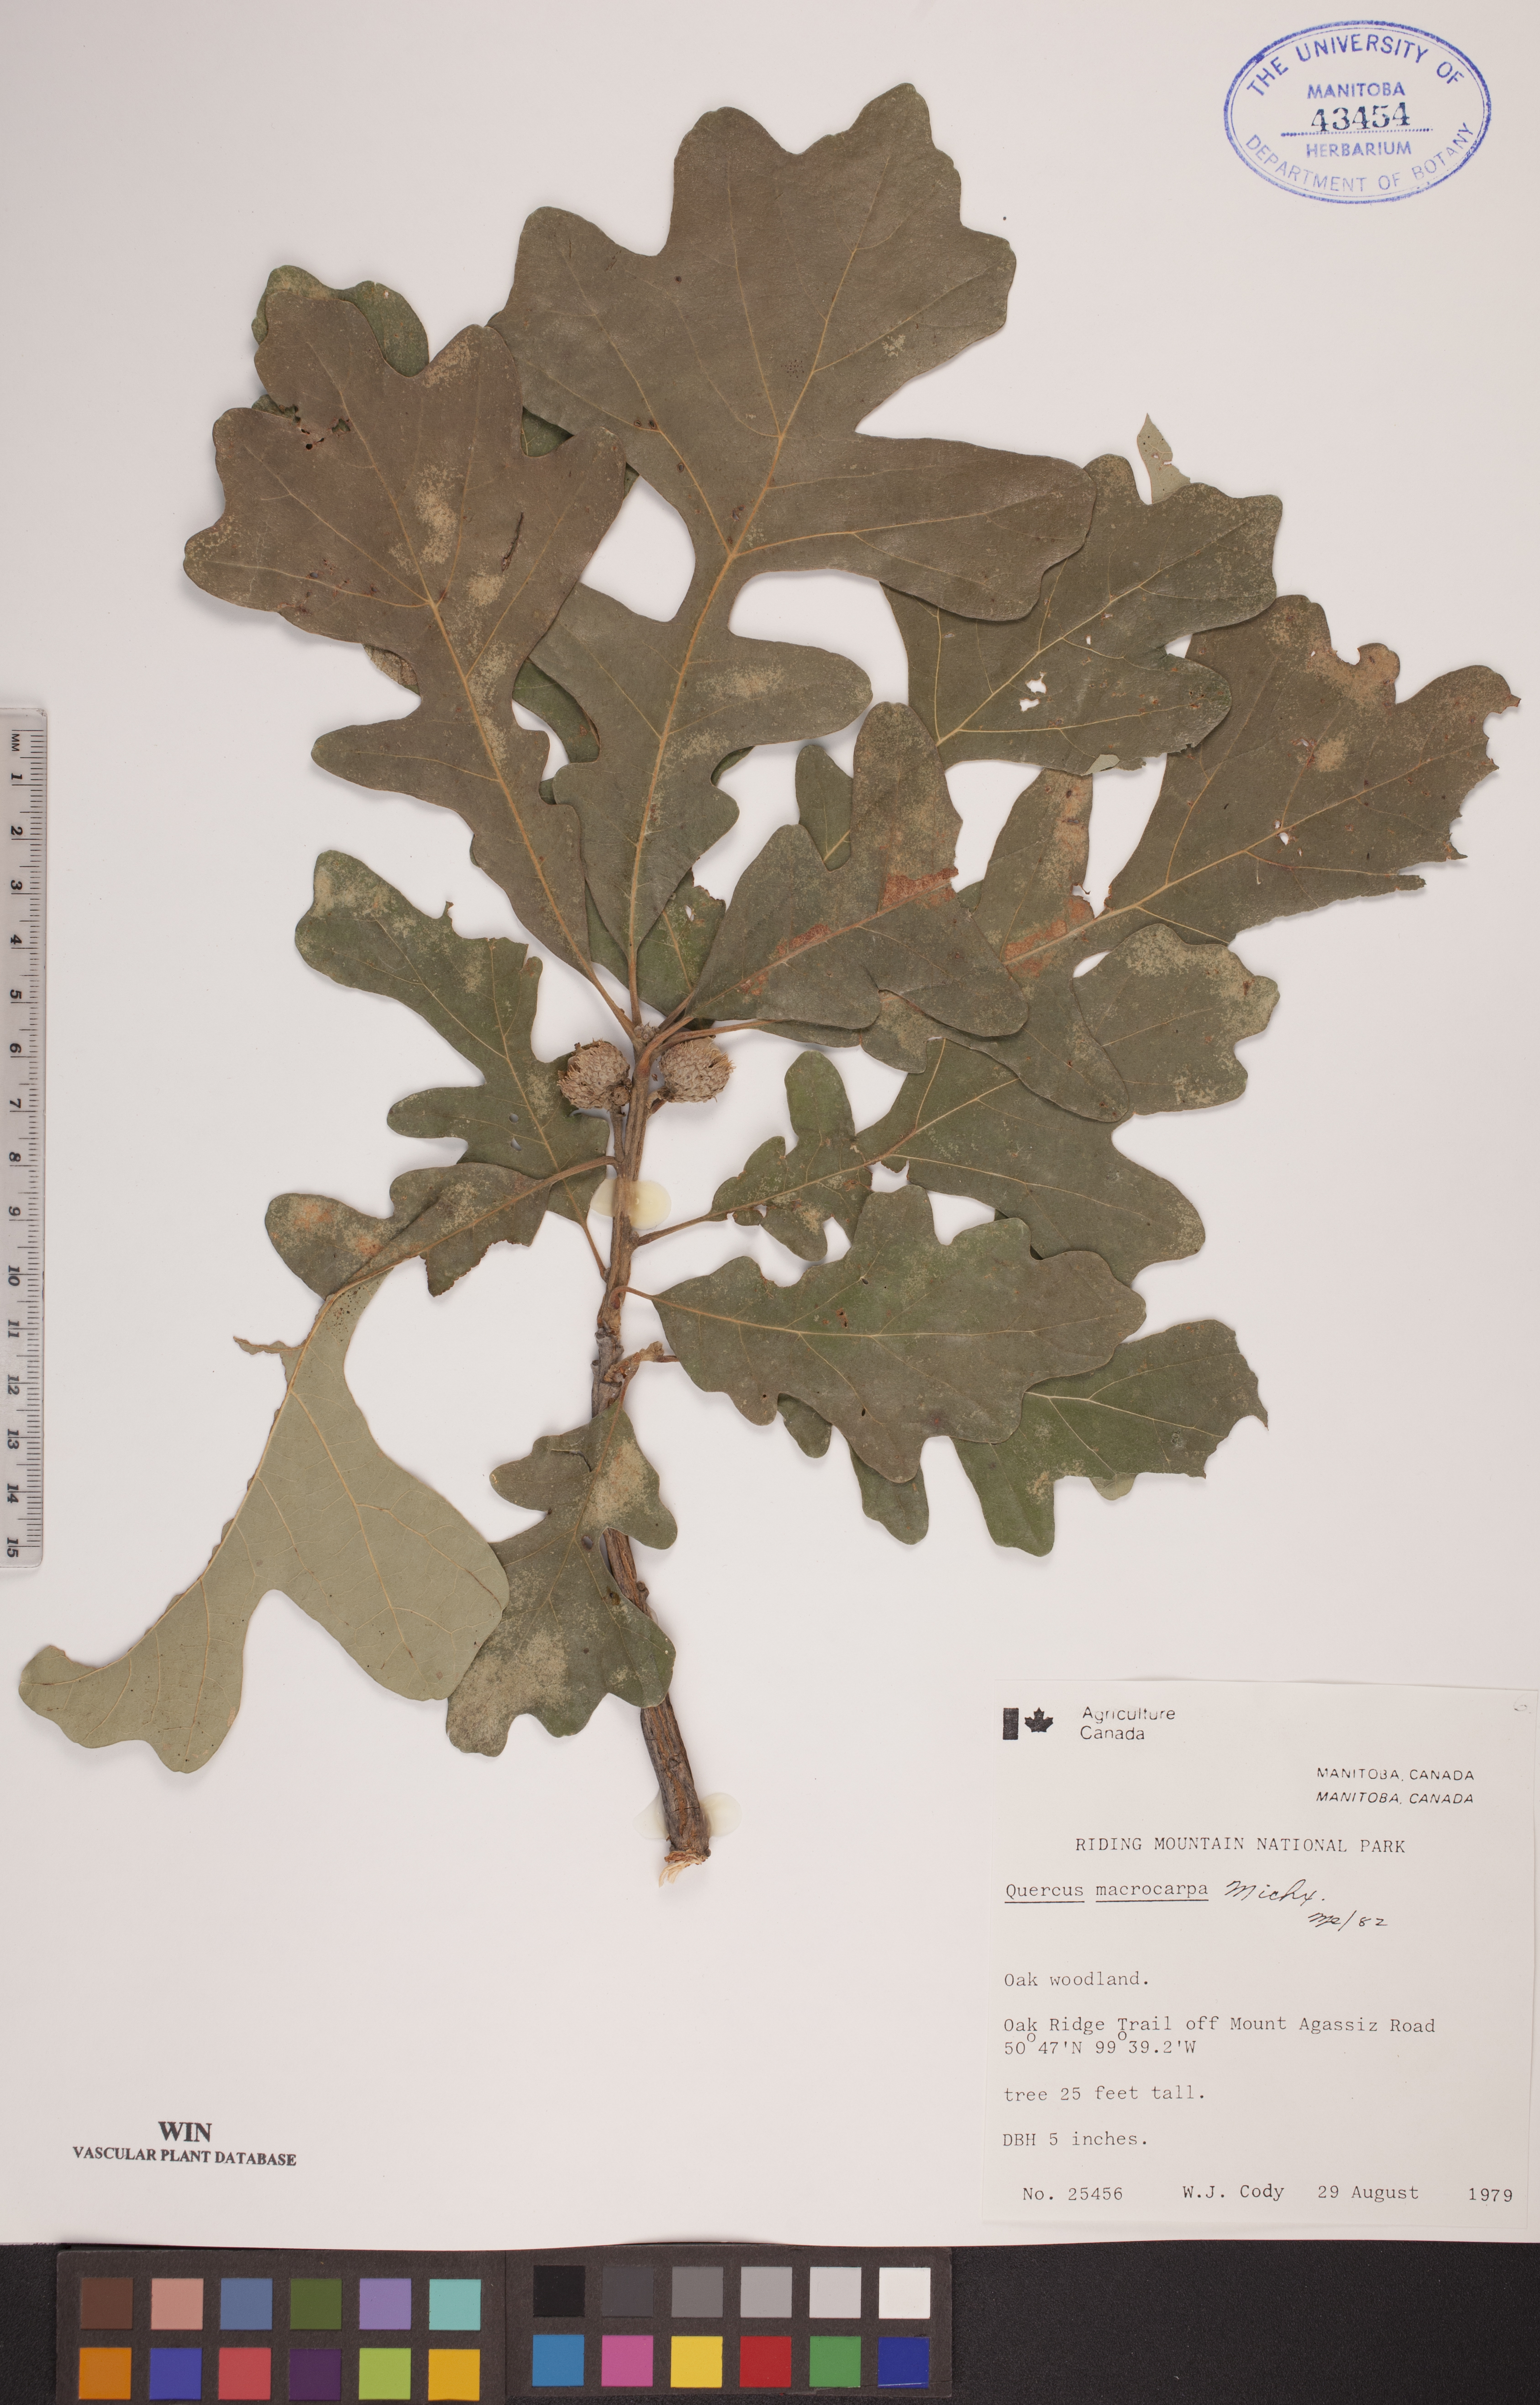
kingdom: Plantae
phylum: Tracheophyta
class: Magnoliopsida
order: Fagales
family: Fagaceae
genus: Quercus
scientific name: Quercus macrocarpa
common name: Bur oak
